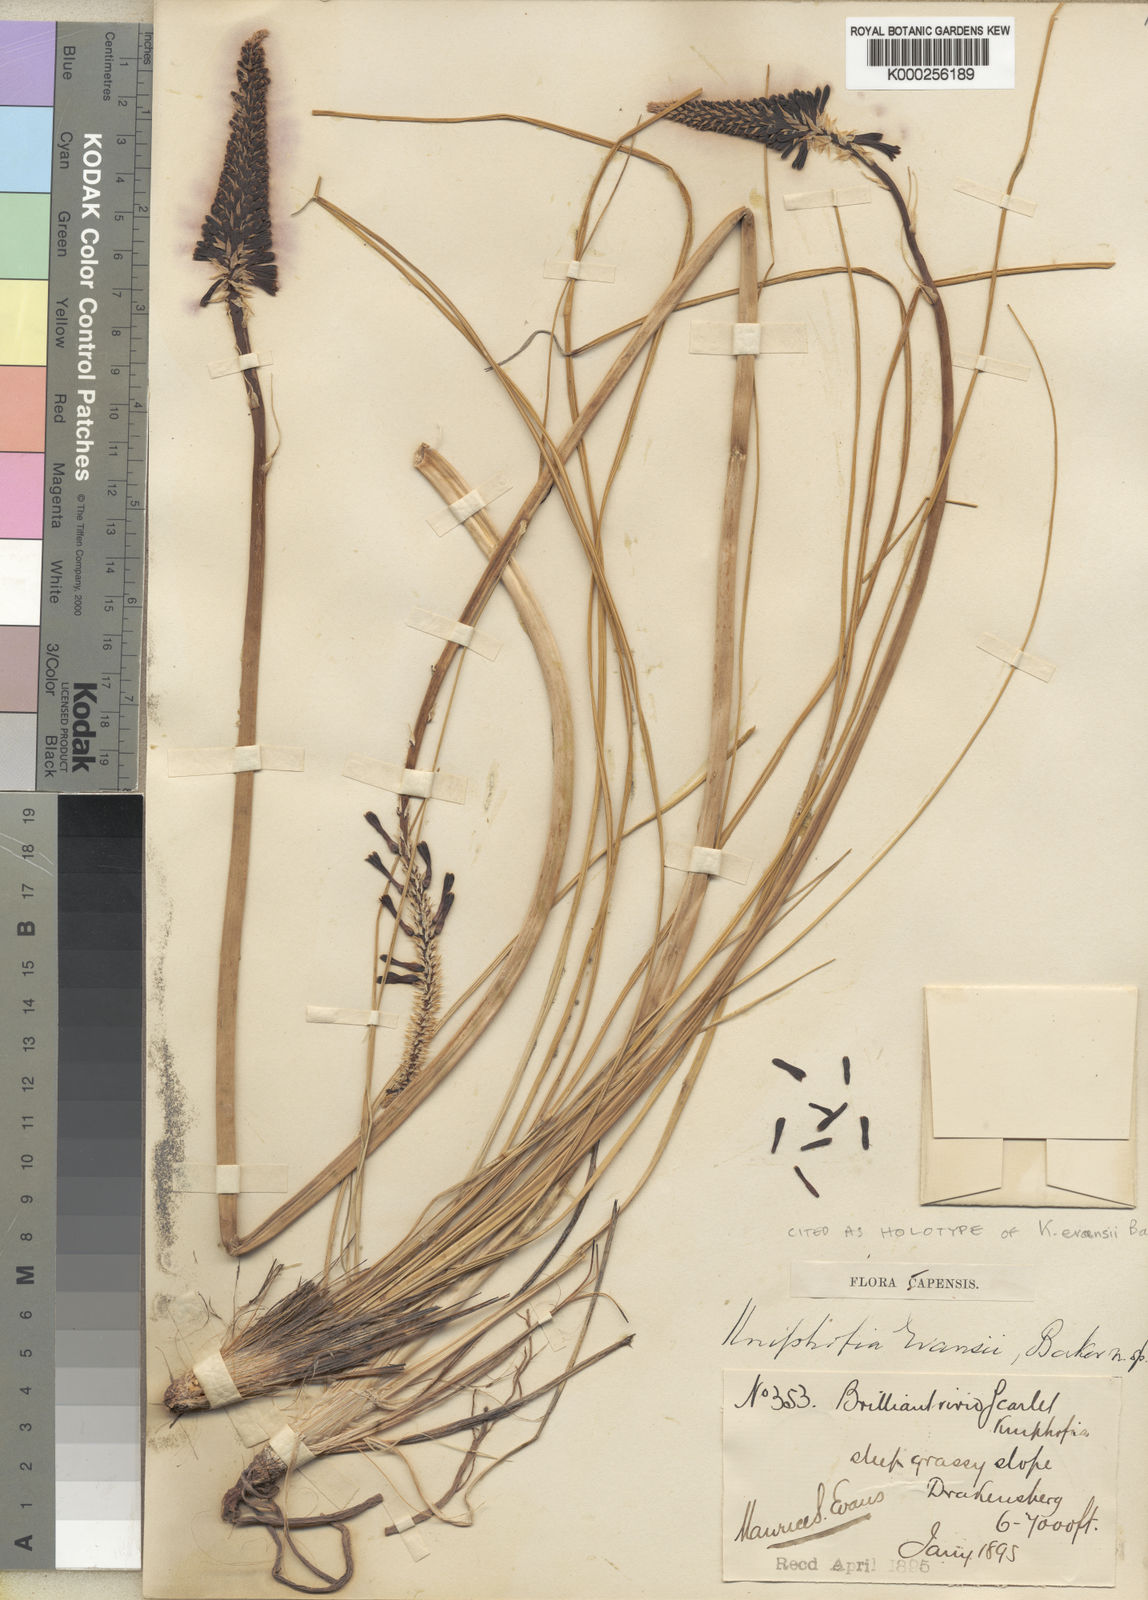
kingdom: Plantae
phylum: Tracheophyta
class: Liliopsida
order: Asparagales
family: Asphodelaceae
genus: Kniphofia
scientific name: Kniphofia evansii
